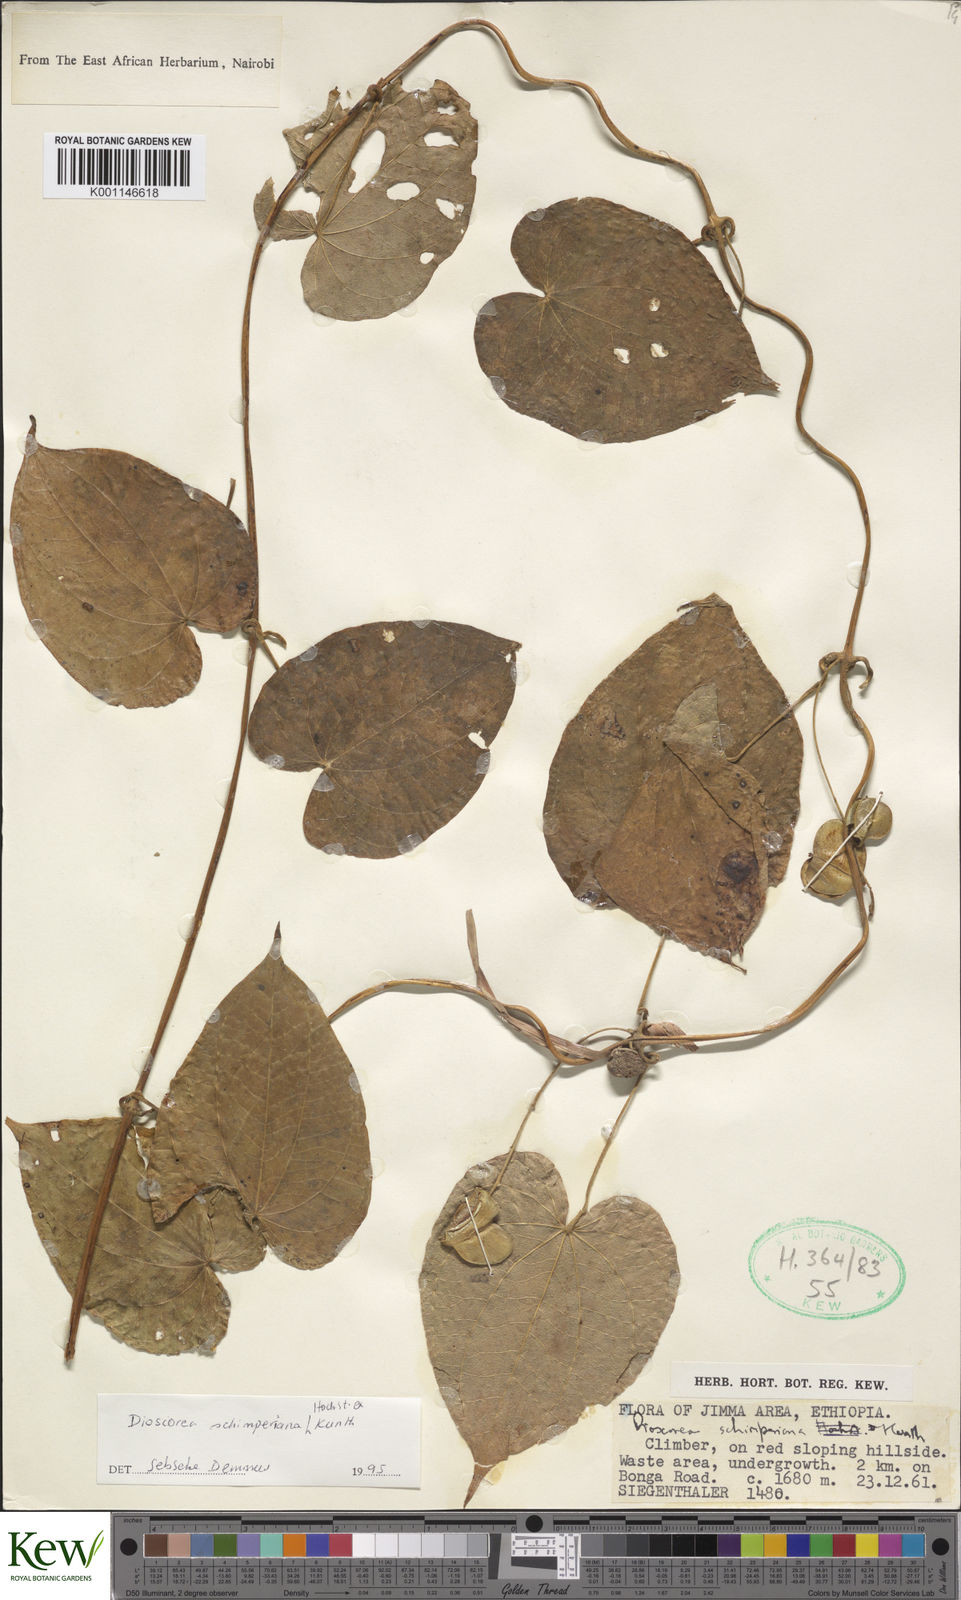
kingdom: Plantae
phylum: Tracheophyta
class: Liliopsida
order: Dioscoreales
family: Dioscoreaceae
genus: Dioscorea
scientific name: Dioscorea schimperiana
